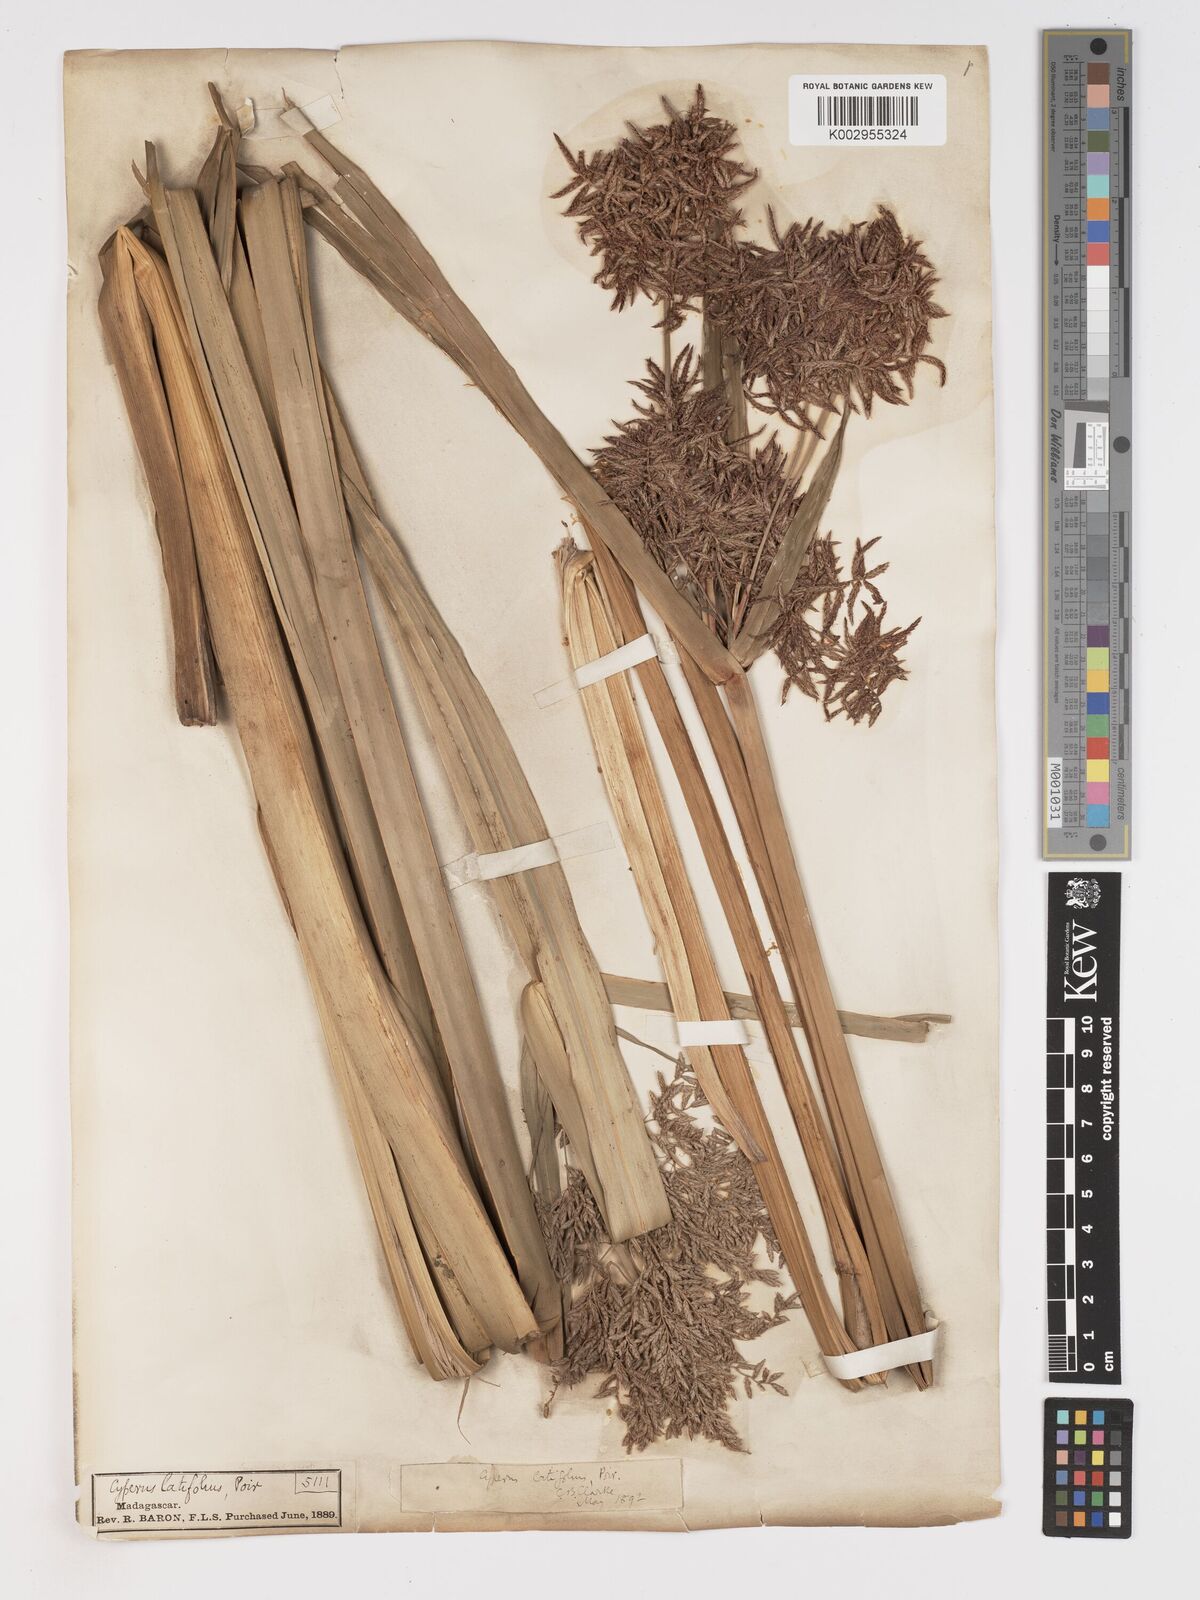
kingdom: Plantae
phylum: Tracheophyta
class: Liliopsida
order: Poales
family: Cyperaceae
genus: Cyperus
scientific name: Cyperus latifolius
